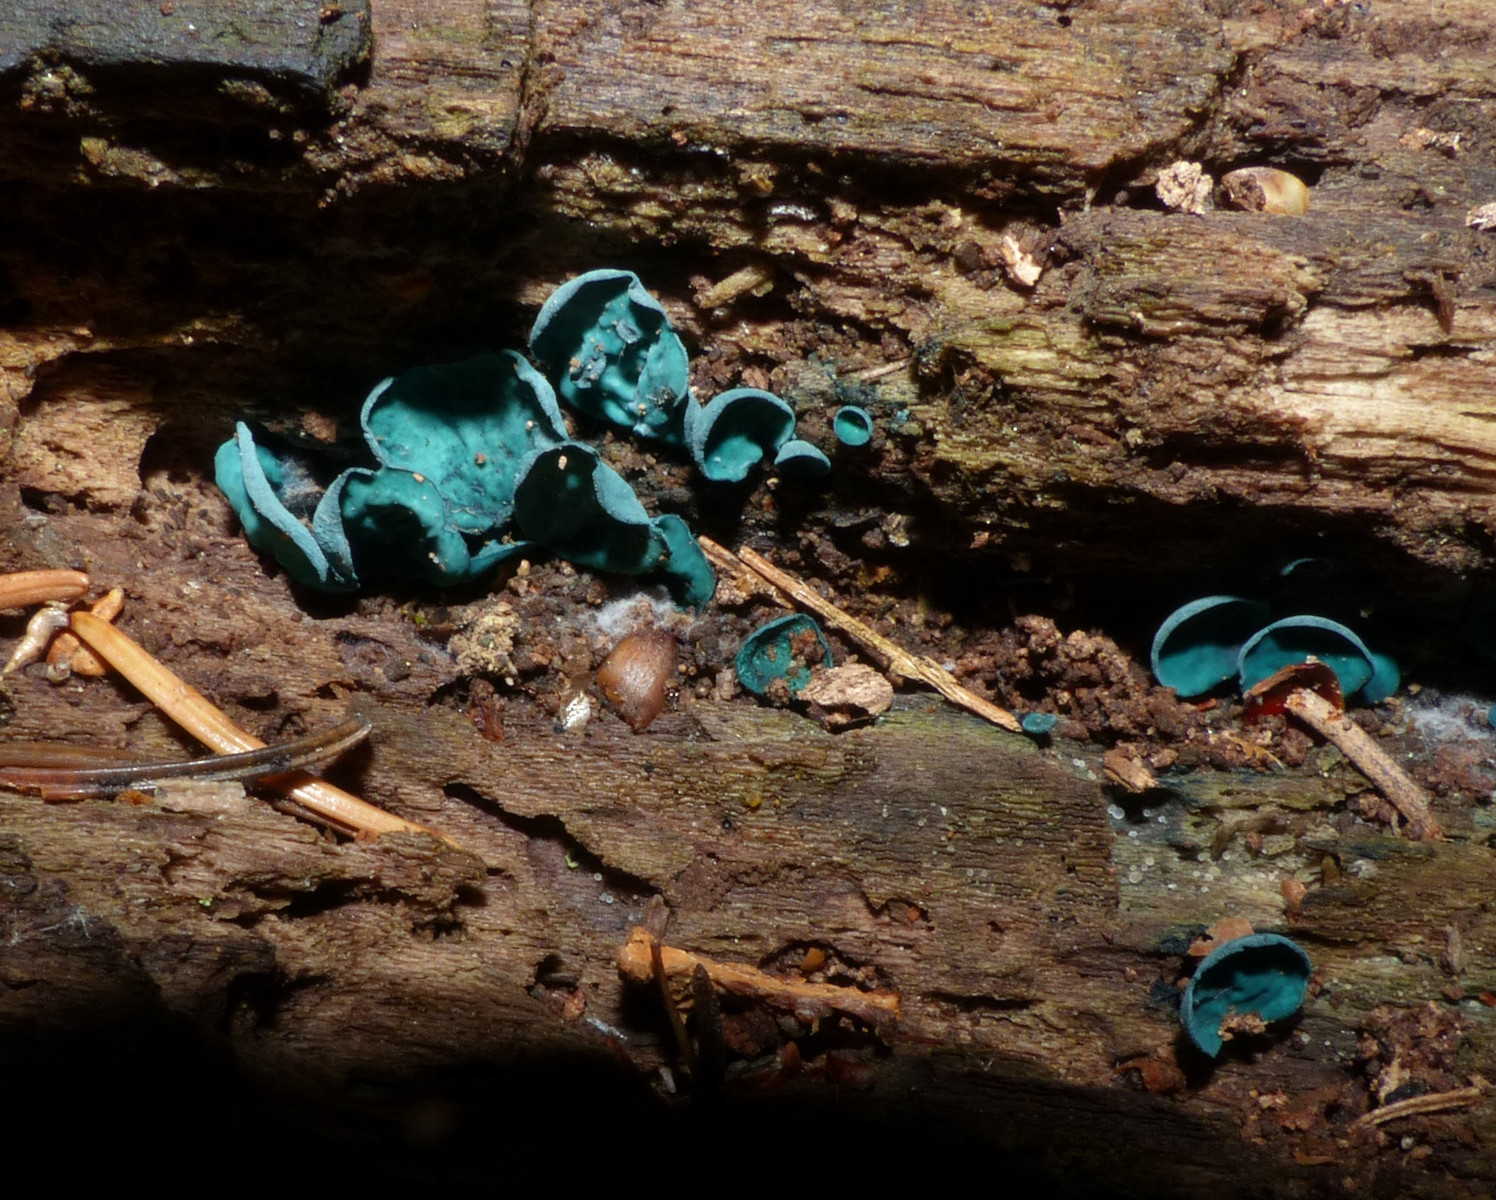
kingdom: Fungi
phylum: Ascomycota
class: Leotiomycetes
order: Helotiales
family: Chlorociboriaceae
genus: Chlorociboria
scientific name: Chlorociboria aeruginascens
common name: almindelig grønskive
